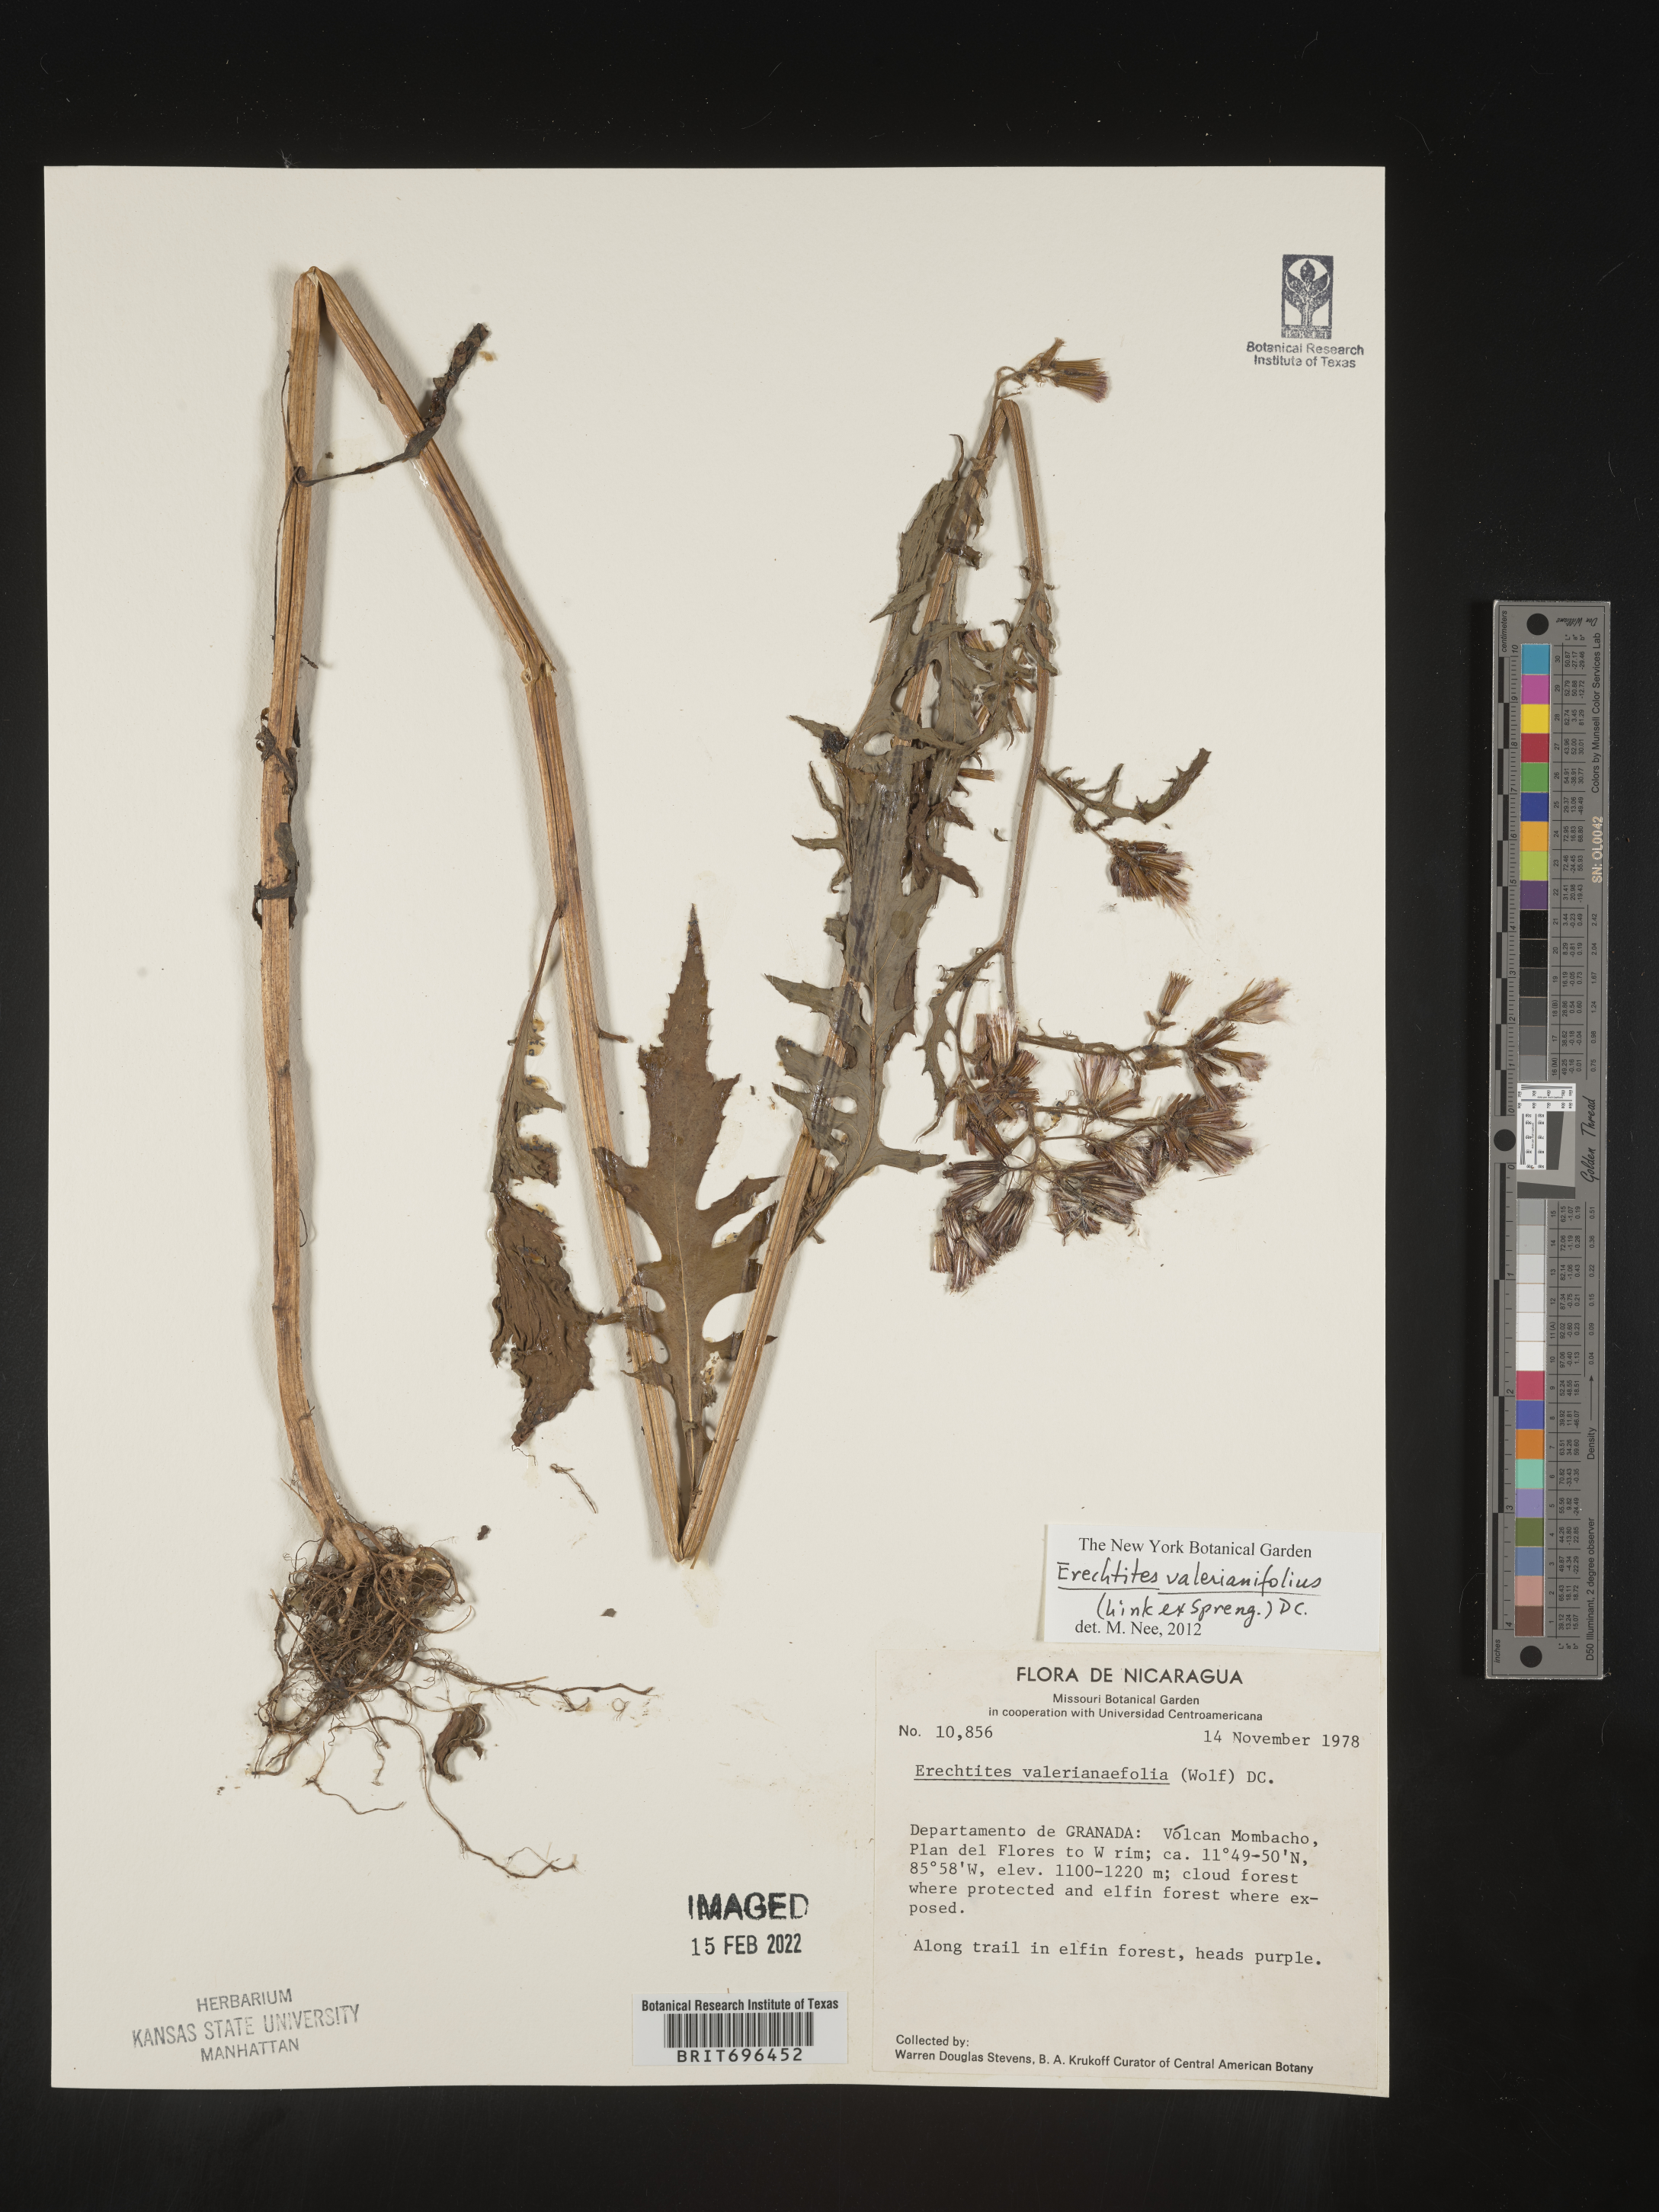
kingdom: Plantae
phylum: Tracheophyta
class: Magnoliopsida
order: Asterales
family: Asteraceae
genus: Erechtites
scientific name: Erechtites
